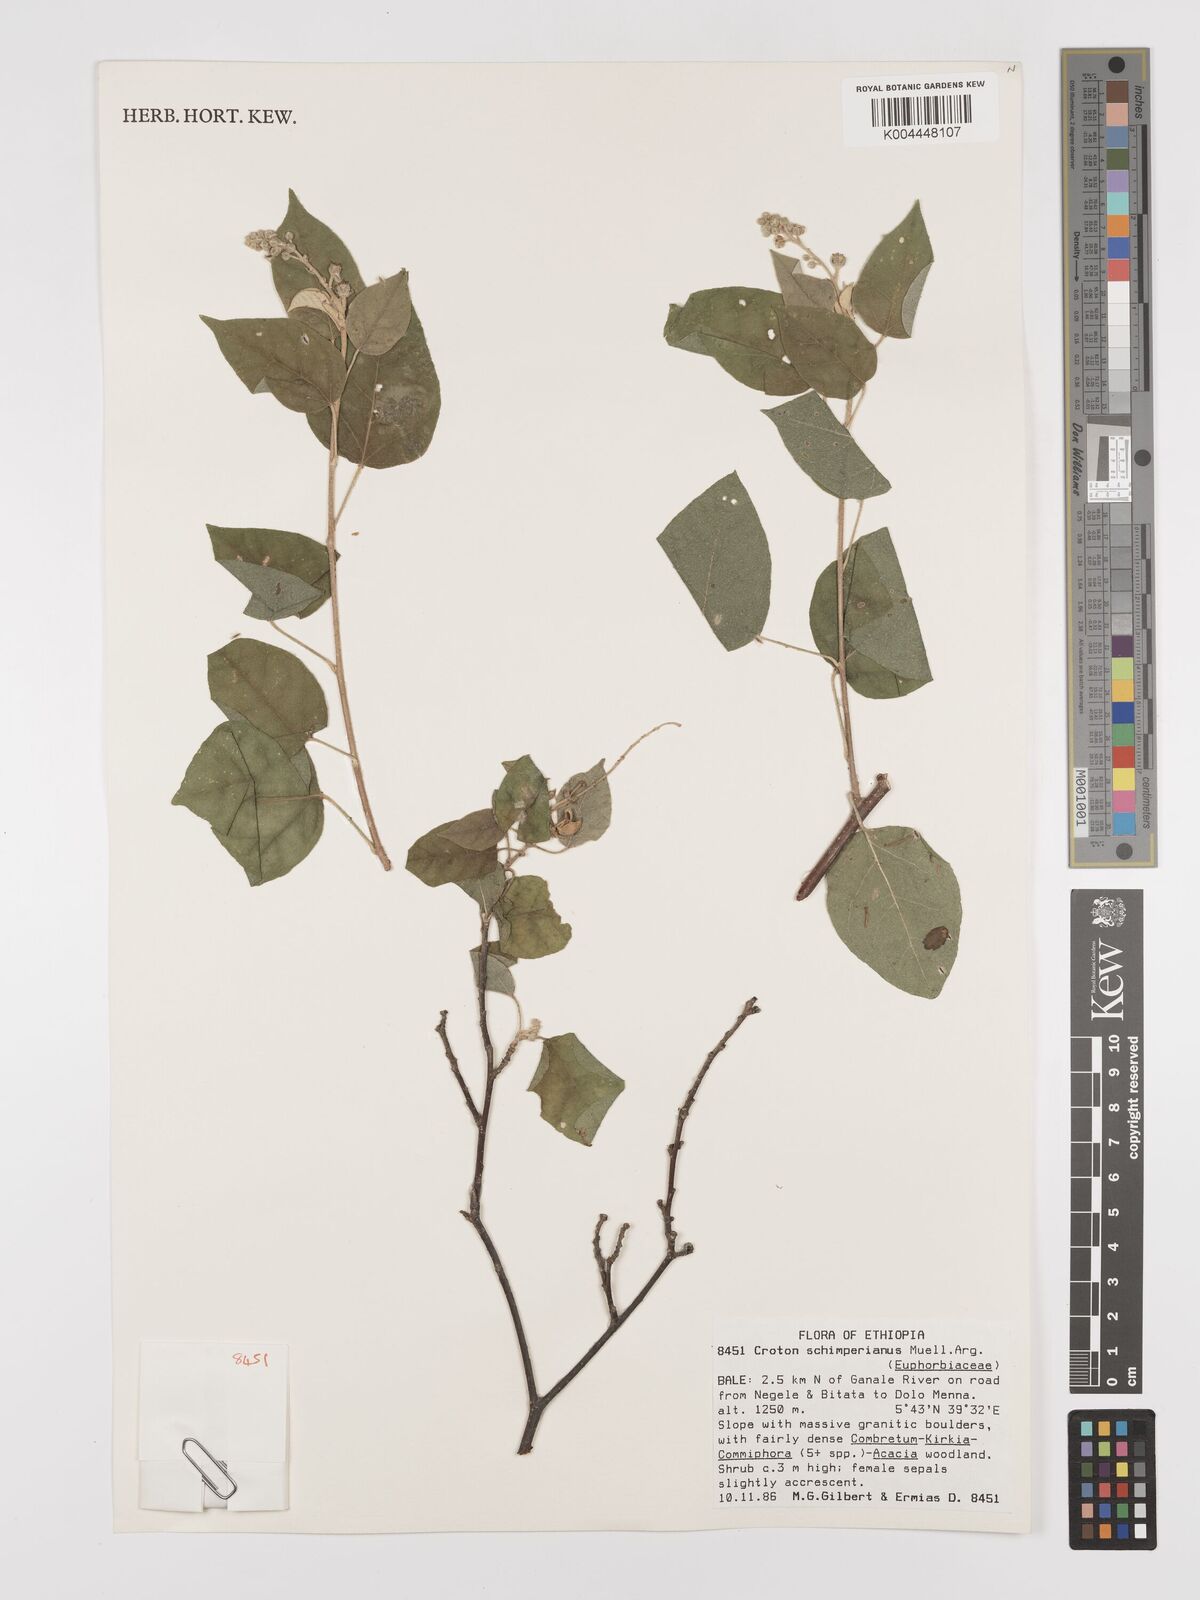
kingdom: Plantae
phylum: Tracheophyta
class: Magnoliopsida
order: Malpighiales
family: Euphorbiaceae
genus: Croton
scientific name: Croton schimperianus
